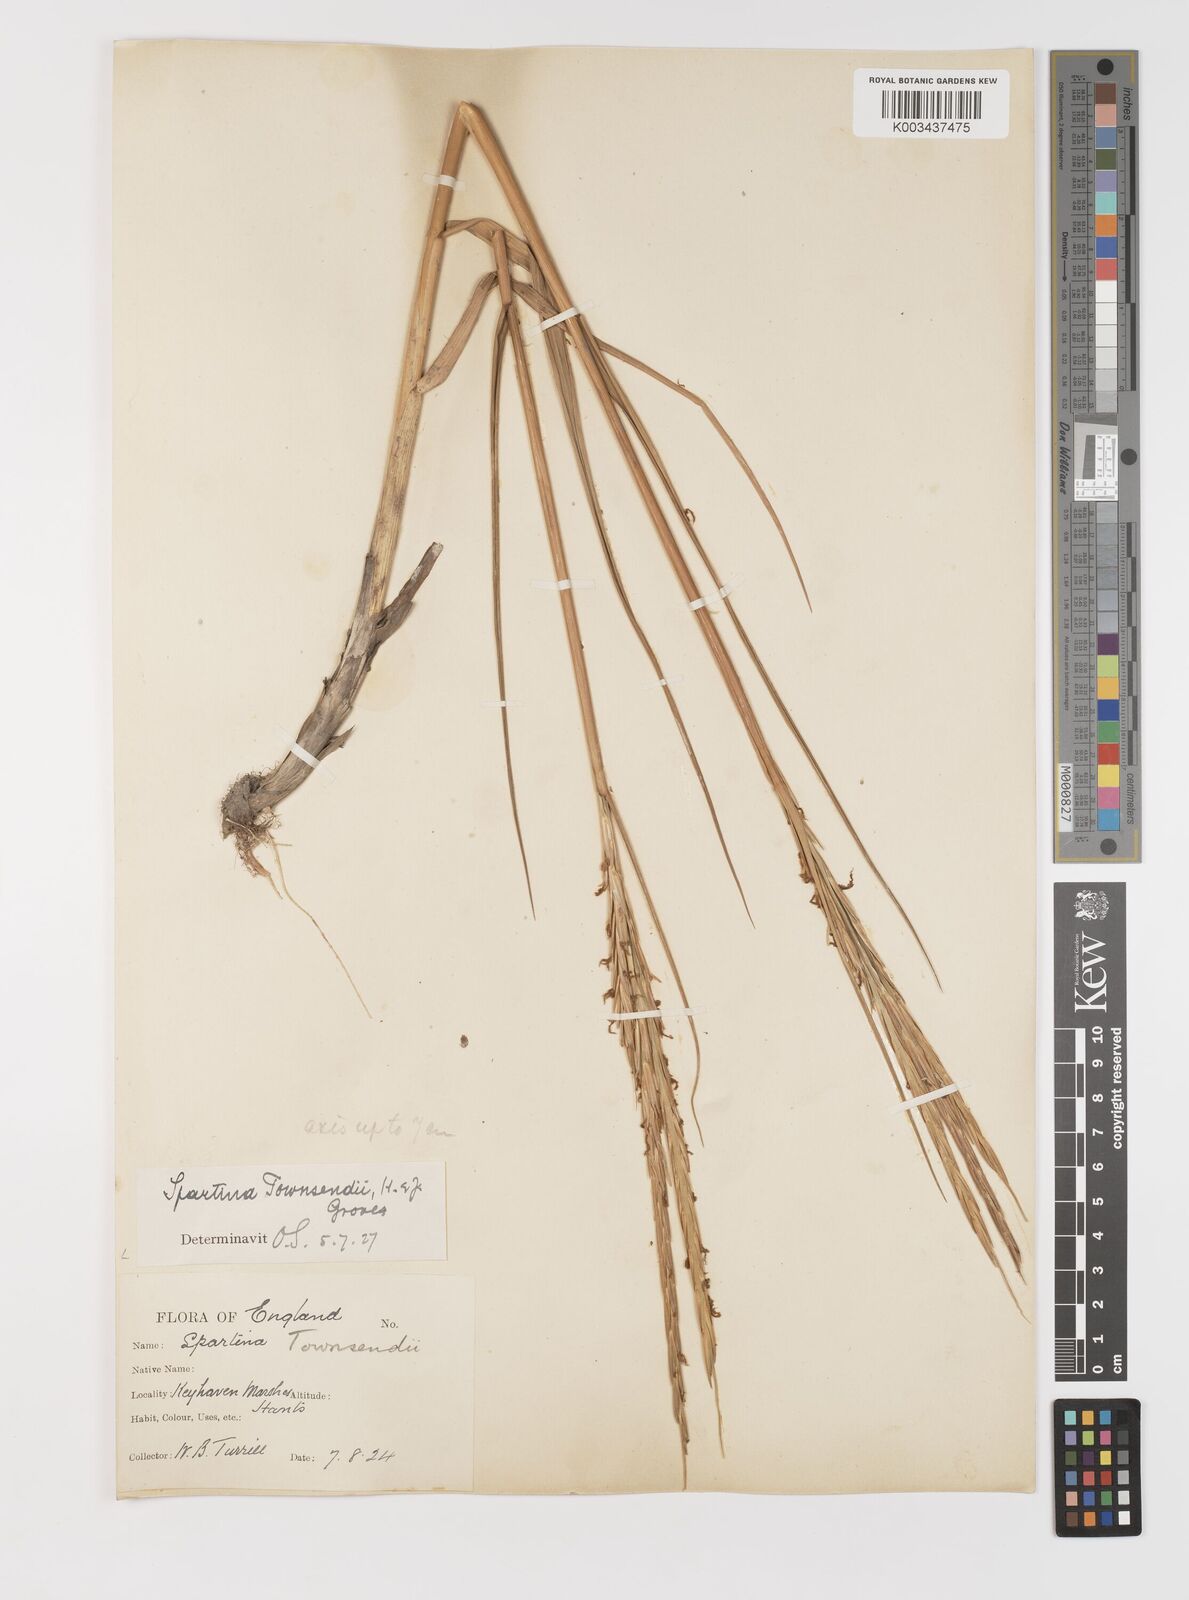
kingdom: Plantae
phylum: Tracheophyta
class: Liliopsida
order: Poales
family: Poaceae
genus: Sporobolus
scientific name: Sporobolus anglicus
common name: English cordgrass
